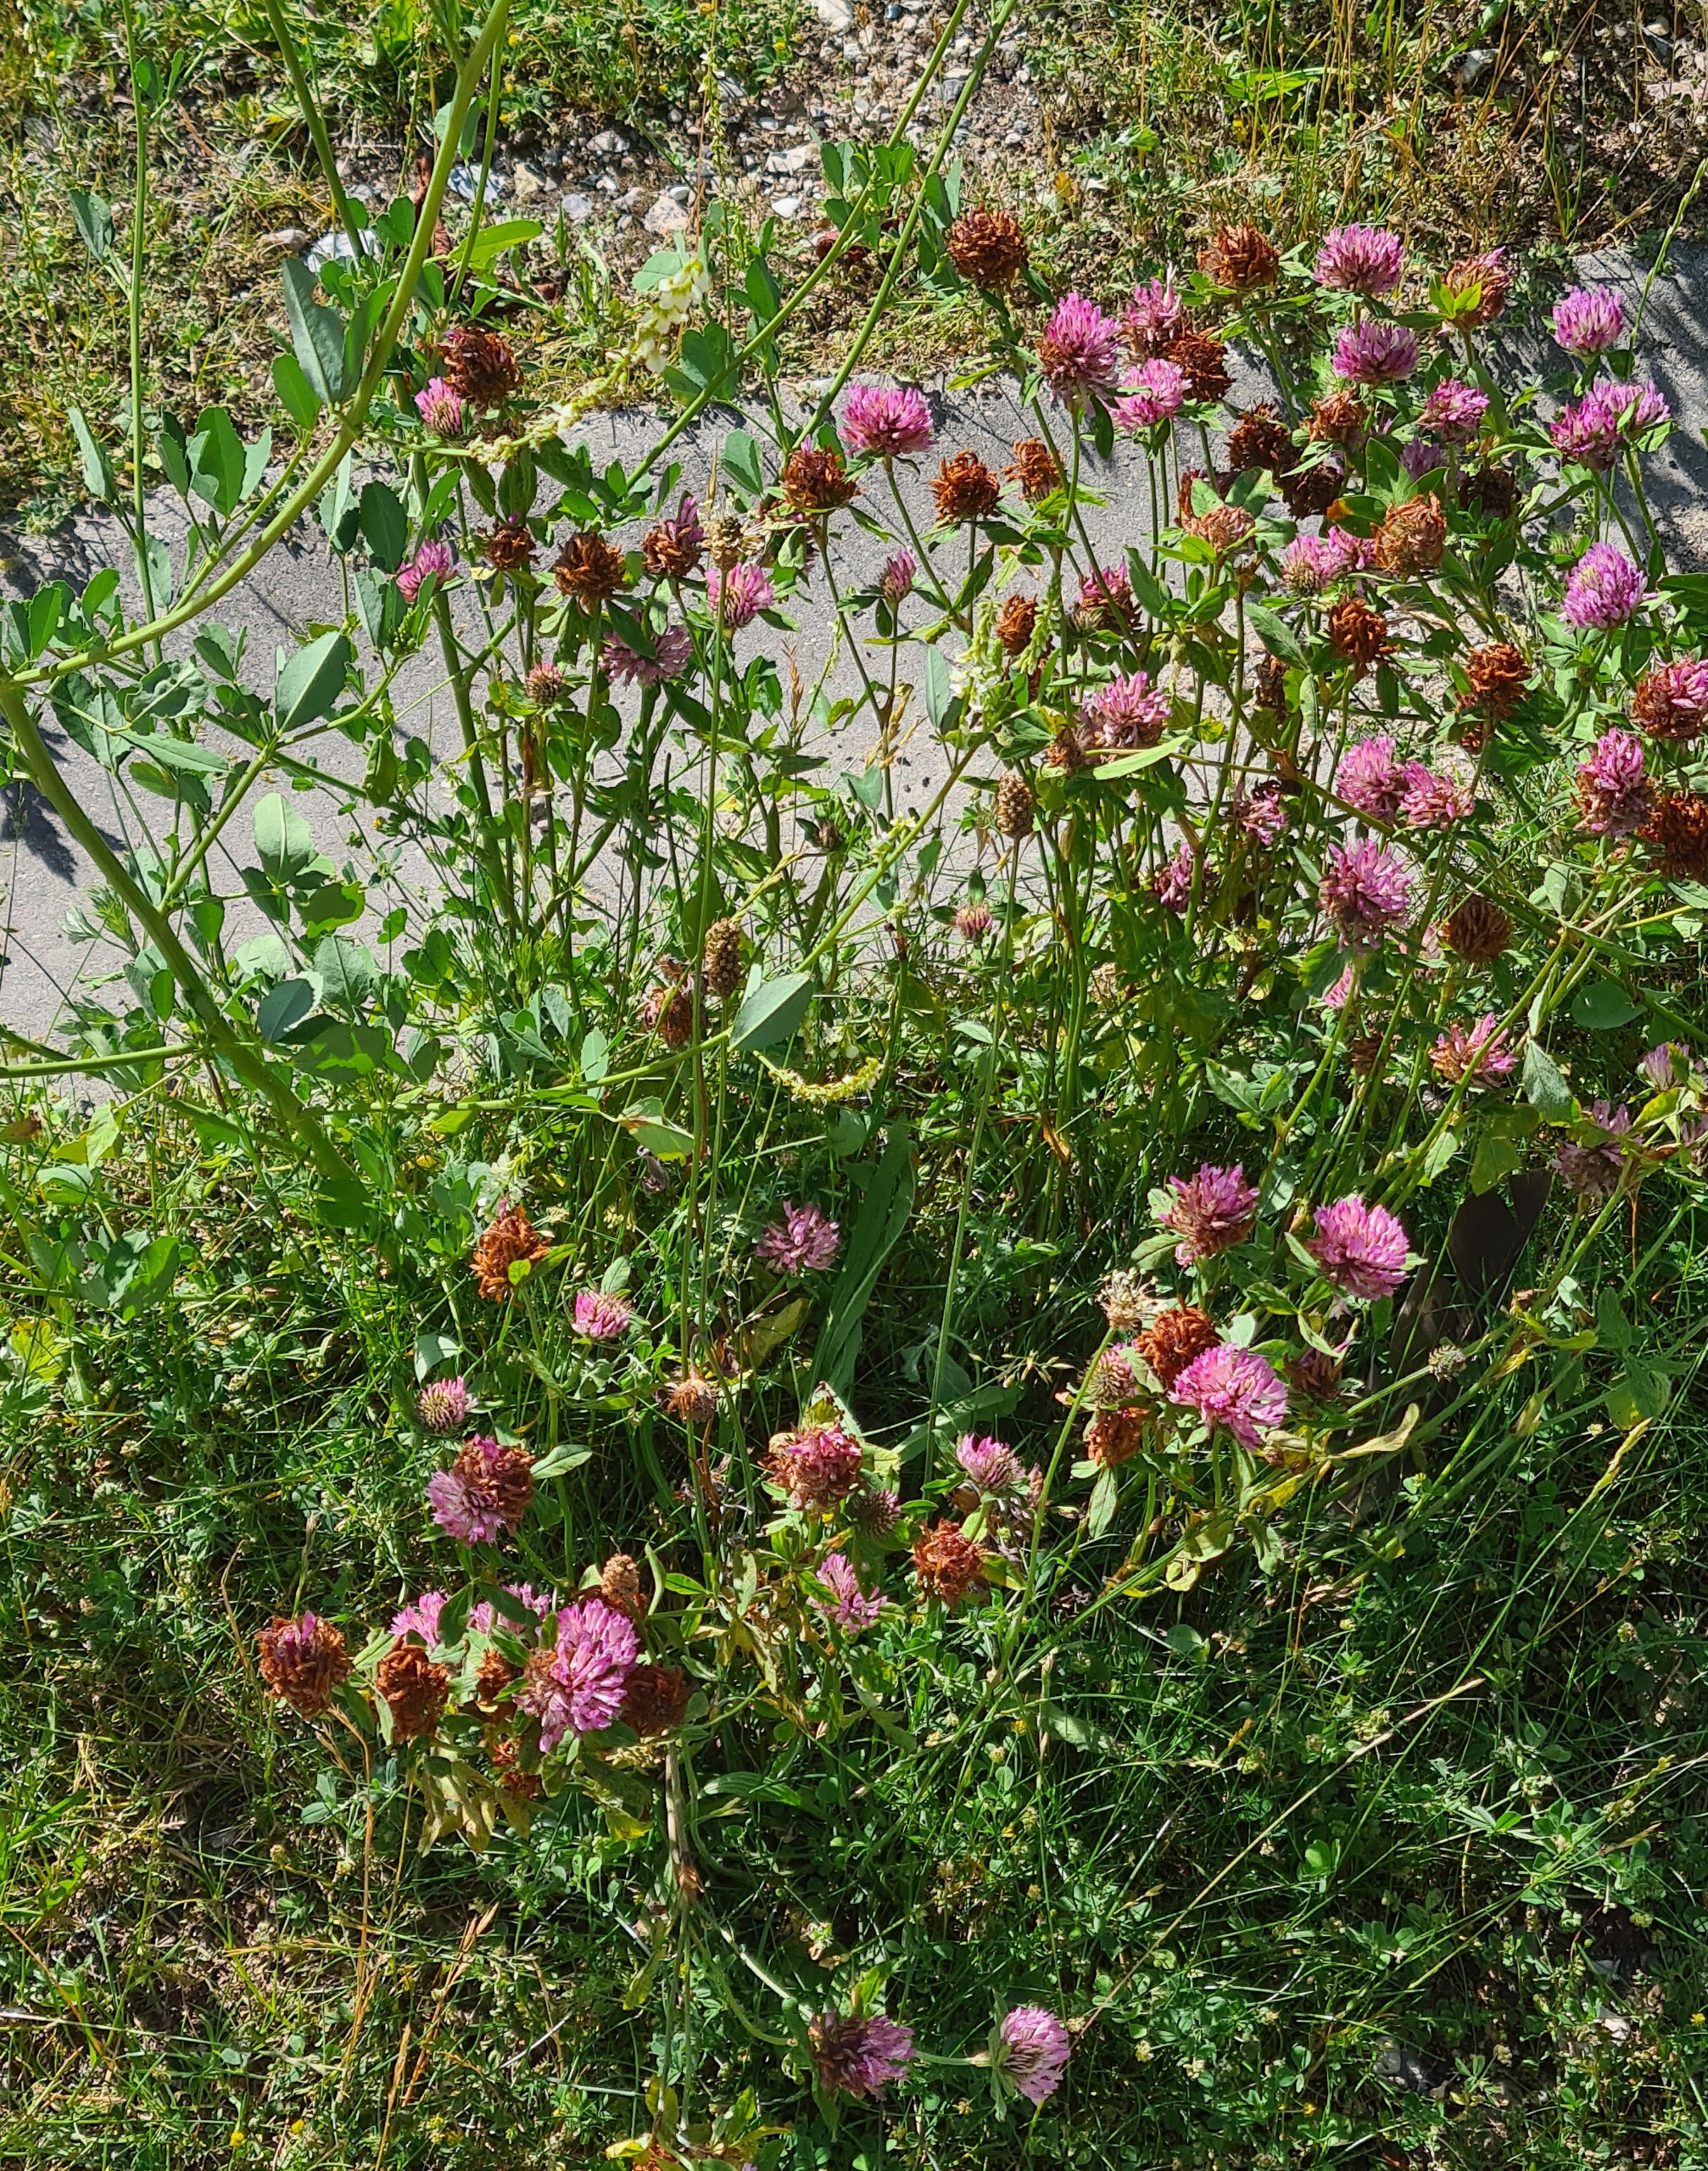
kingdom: Plantae
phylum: Tracheophyta
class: Magnoliopsida
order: Fabales
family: Fabaceae
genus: Trifolium
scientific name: Trifolium pratense
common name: Rød-kløver
